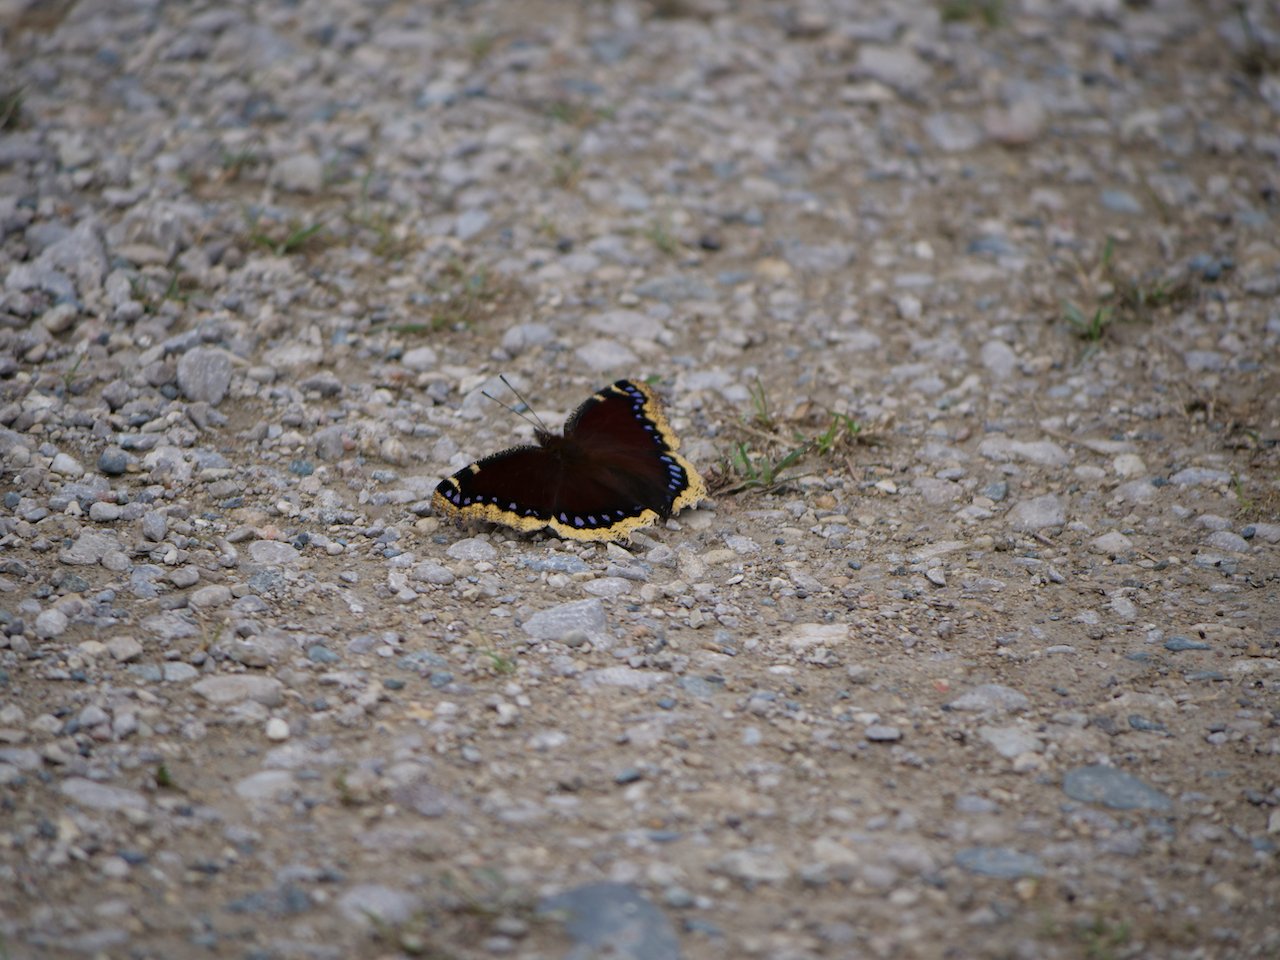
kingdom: Animalia
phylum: Arthropoda
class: Insecta
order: Lepidoptera
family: Nymphalidae
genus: Nymphalis
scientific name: Nymphalis antiopa
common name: Mourning Cloak
